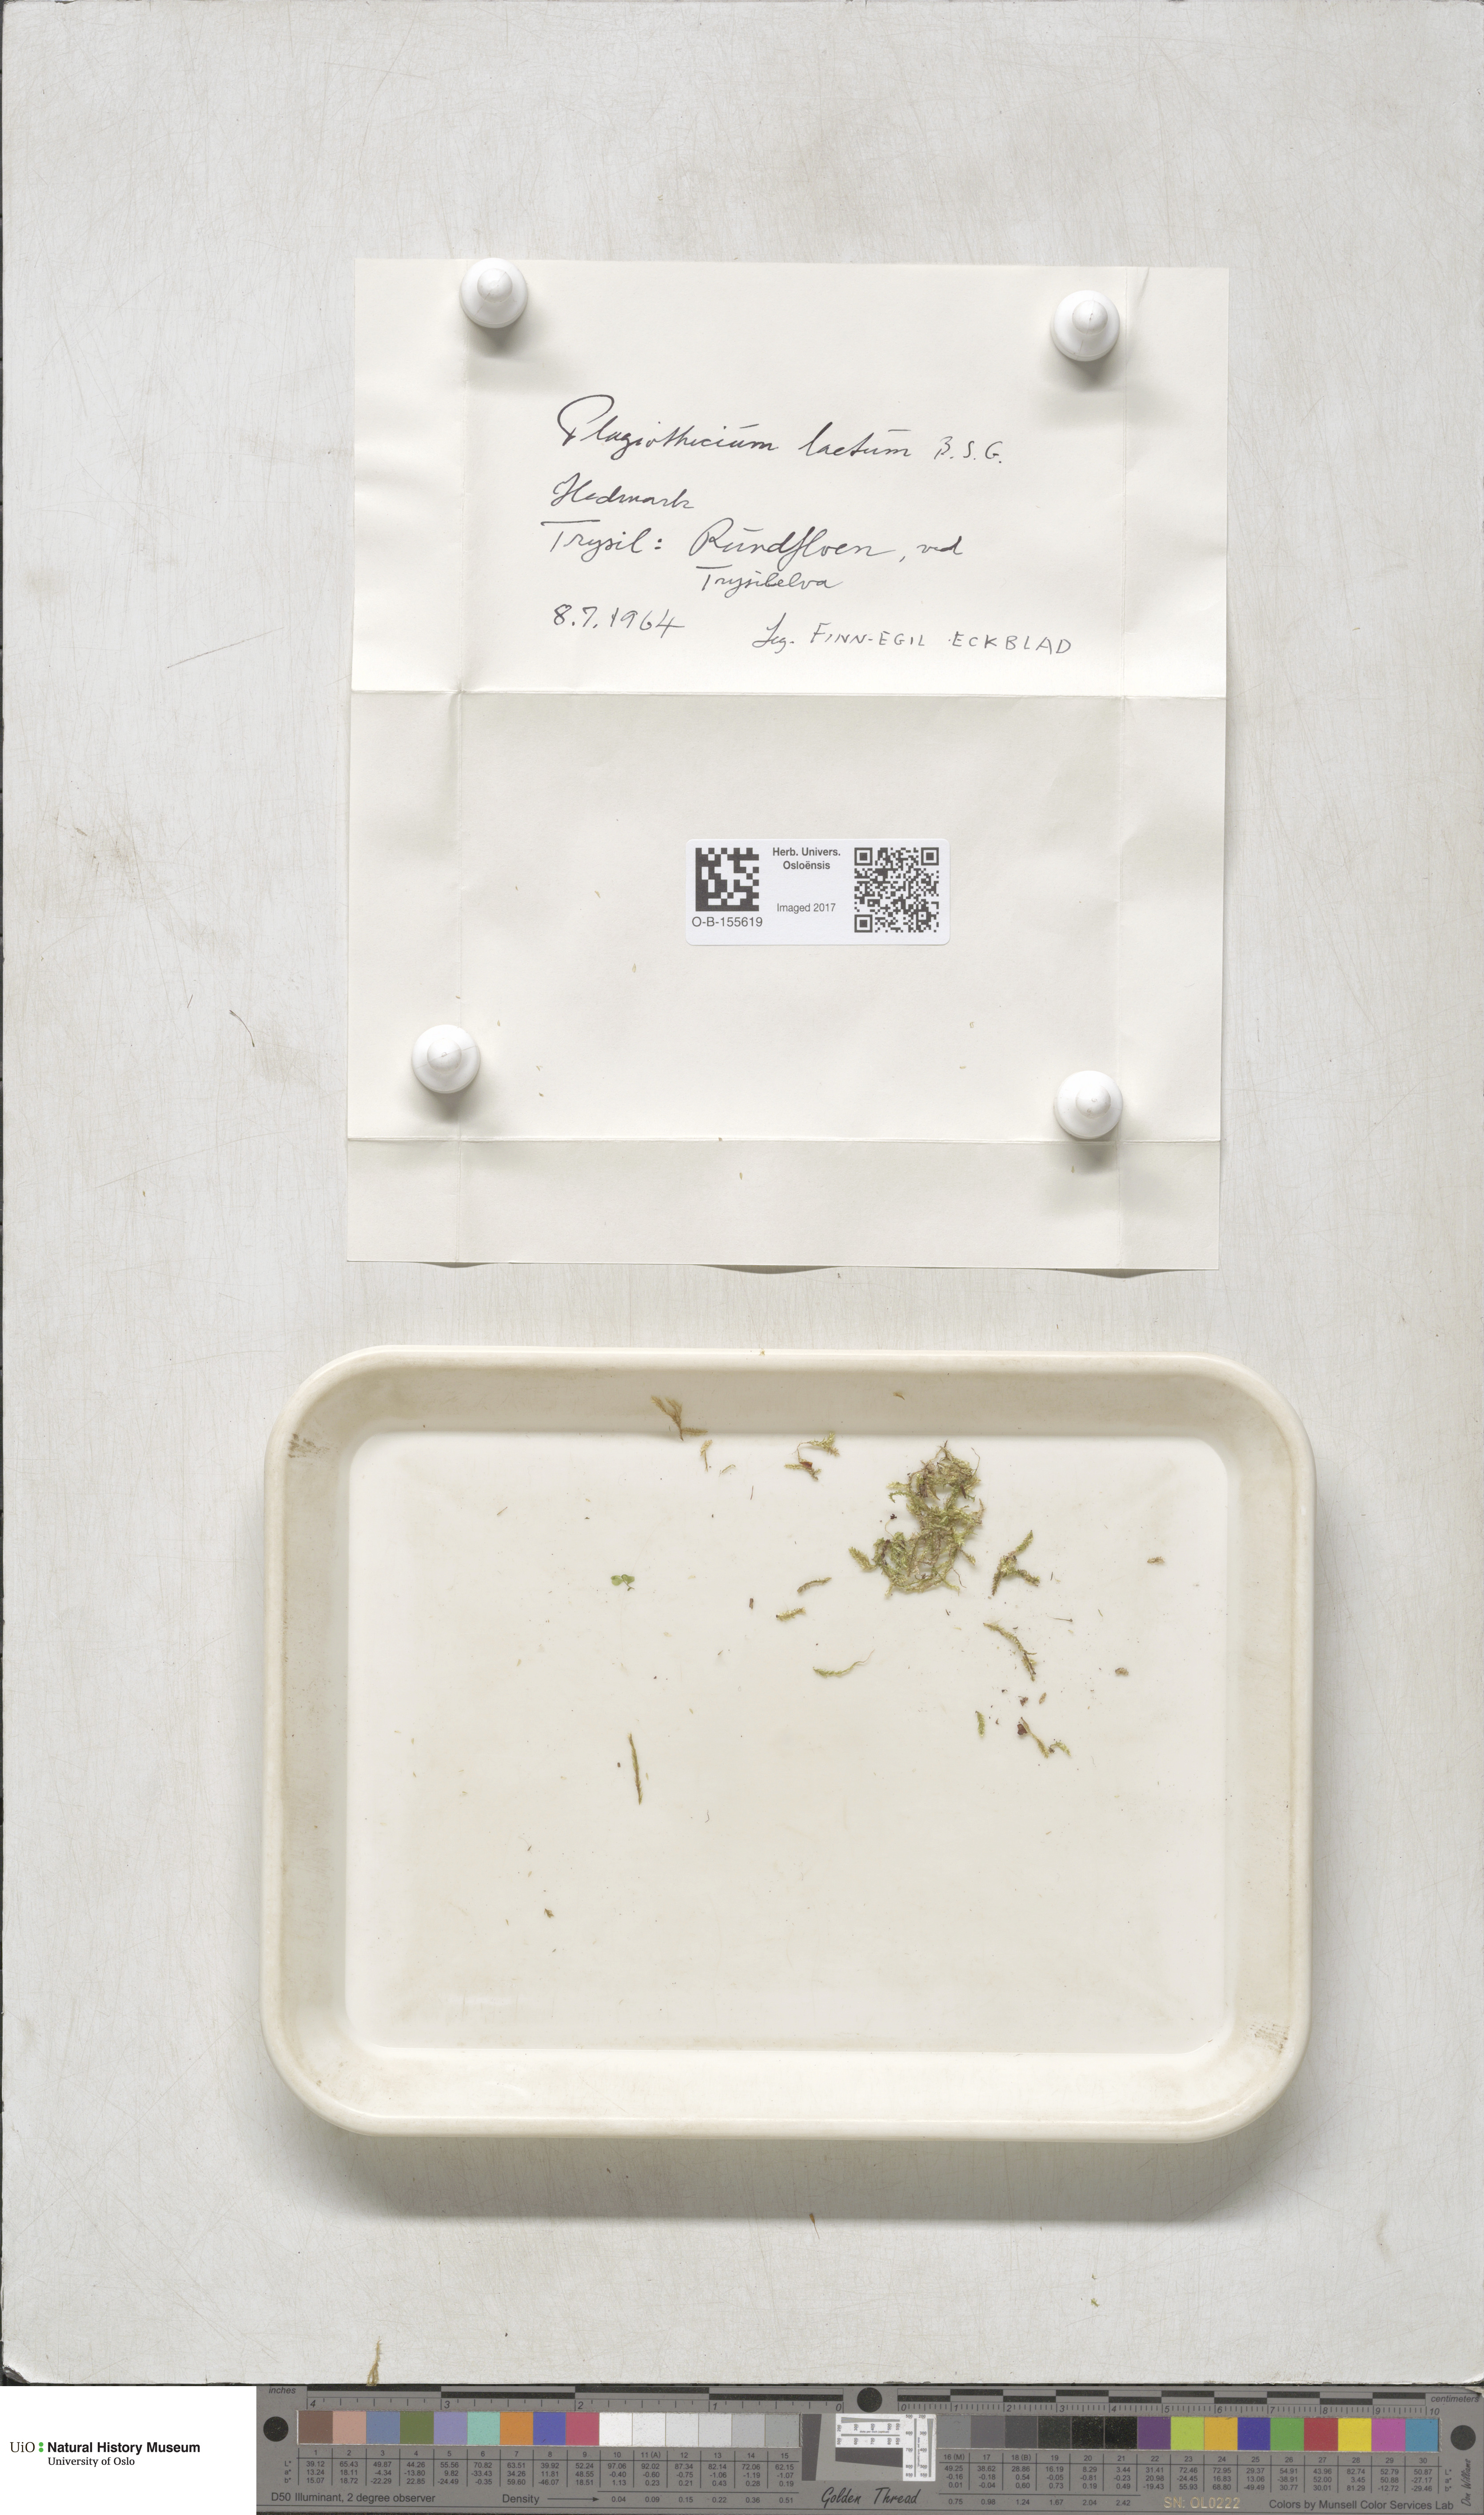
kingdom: Plantae
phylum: Bryophyta
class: Bryopsida
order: Hypnales
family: Plagiotheciaceae
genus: Plagiothecium
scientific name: Plagiothecium laetum
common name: Bright silk moss
